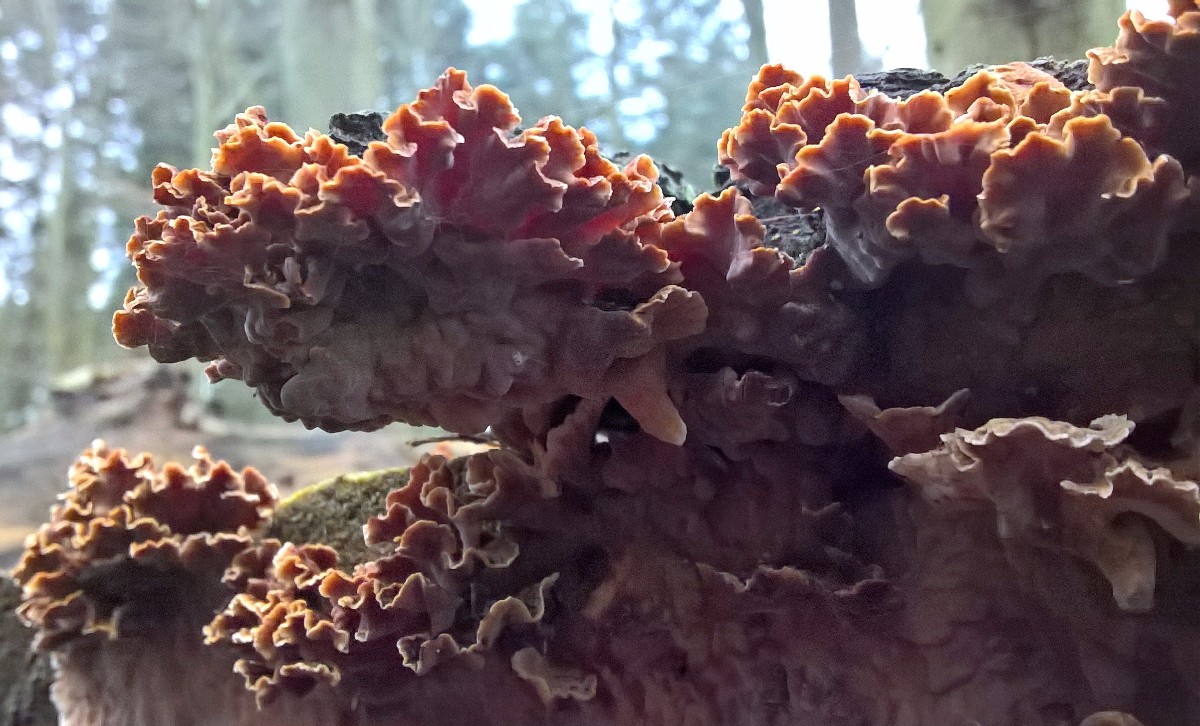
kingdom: Fungi
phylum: Basidiomycota
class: Agaricomycetes
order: Russulales
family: Stereaceae
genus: Stereum
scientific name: Stereum hirsutum
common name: håret lædersvamp
